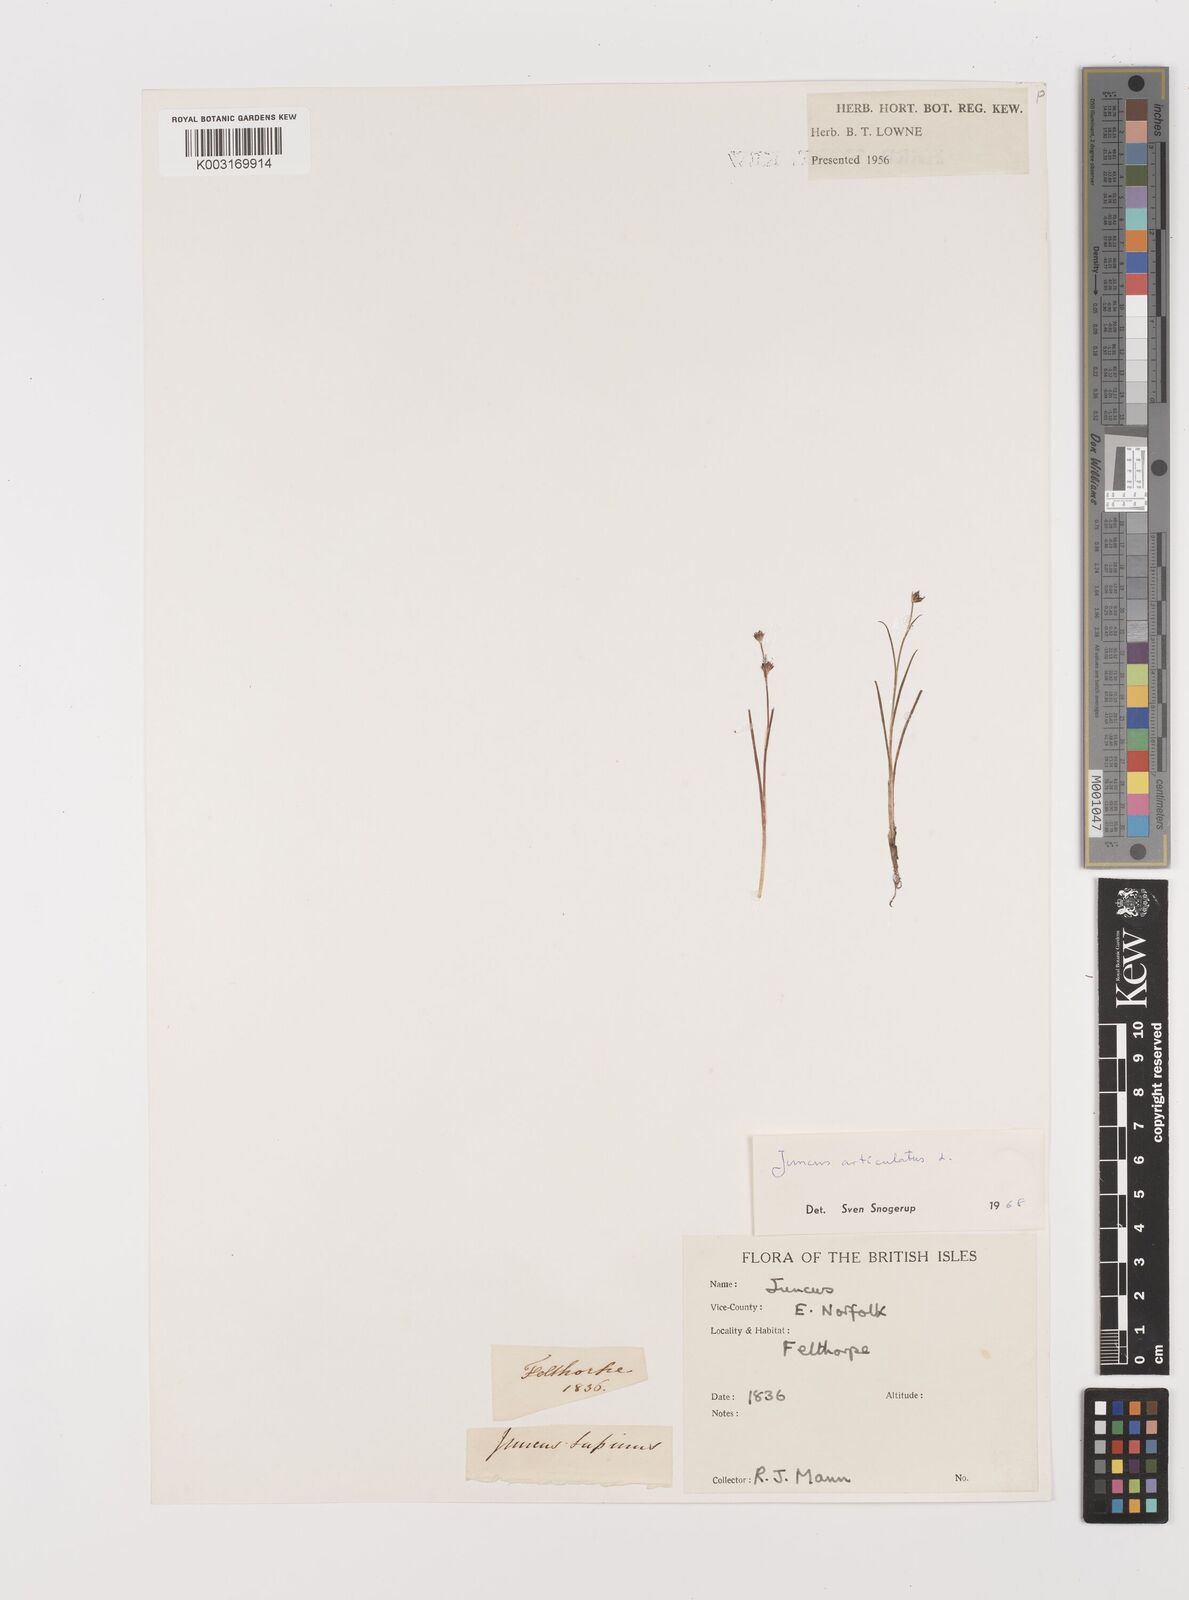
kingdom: Plantae
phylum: Tracheophyta
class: Liliopsida
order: Poales
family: Juncaceae
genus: Juncus
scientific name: Juncus articulatus
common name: Jointed rush
